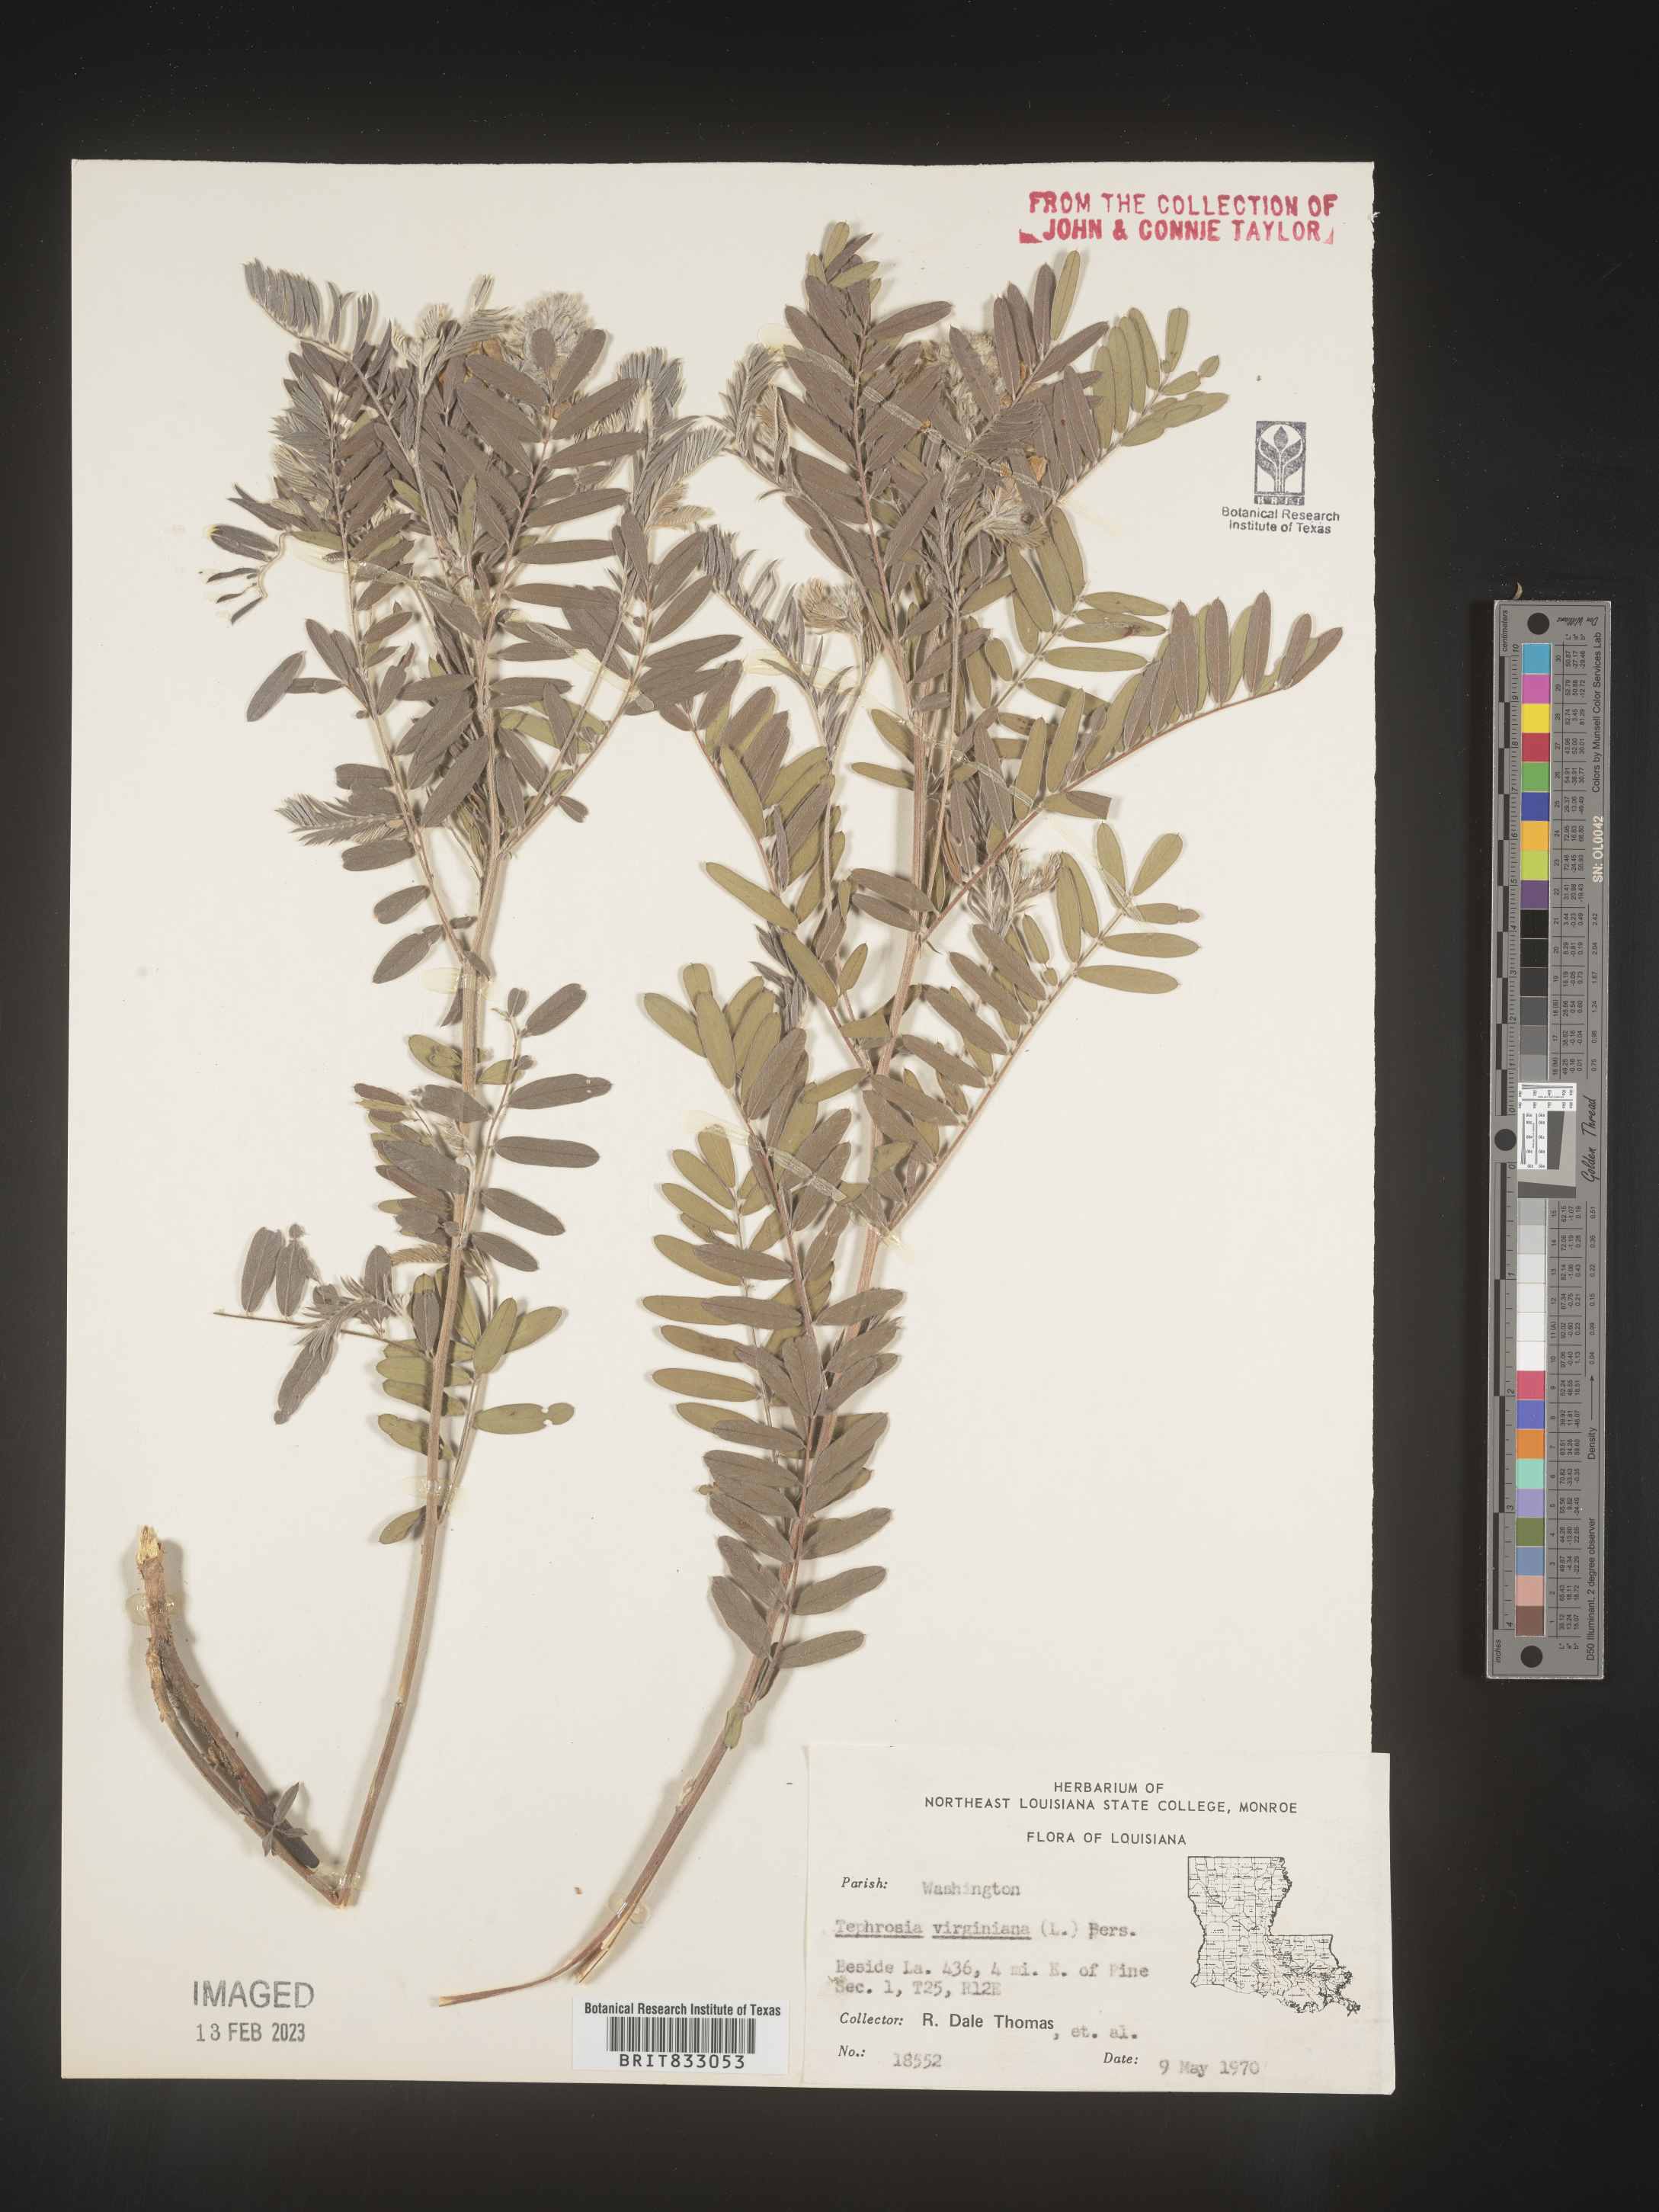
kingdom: Plantae
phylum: Tracheophyta
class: Magnoliopsida
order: Fabales
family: Fabaceae
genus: Tephrosia
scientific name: Tephrosia virginiana
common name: Rabbit-pea
